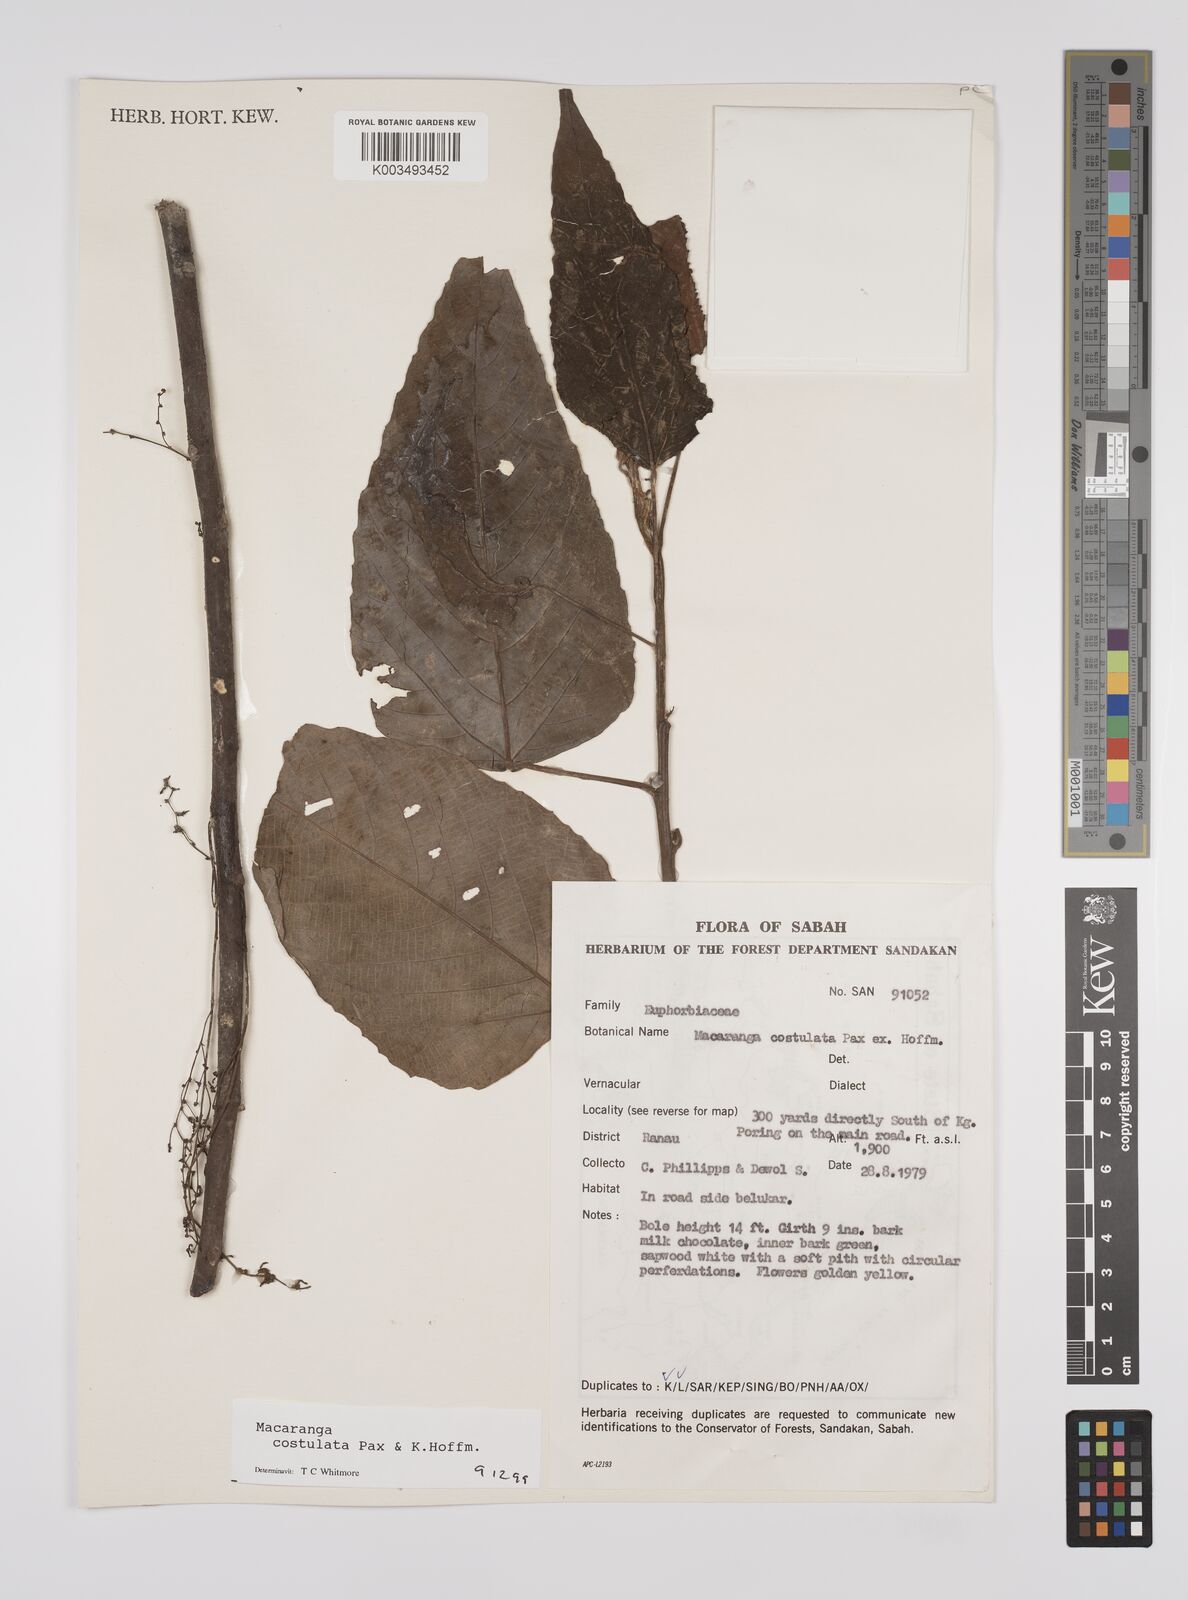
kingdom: Plantae
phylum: Tracheophyta
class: Magnoliopsida
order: Malpighiales
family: Euphorbiaceae
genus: Macaranga
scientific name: Macaranga costulata
